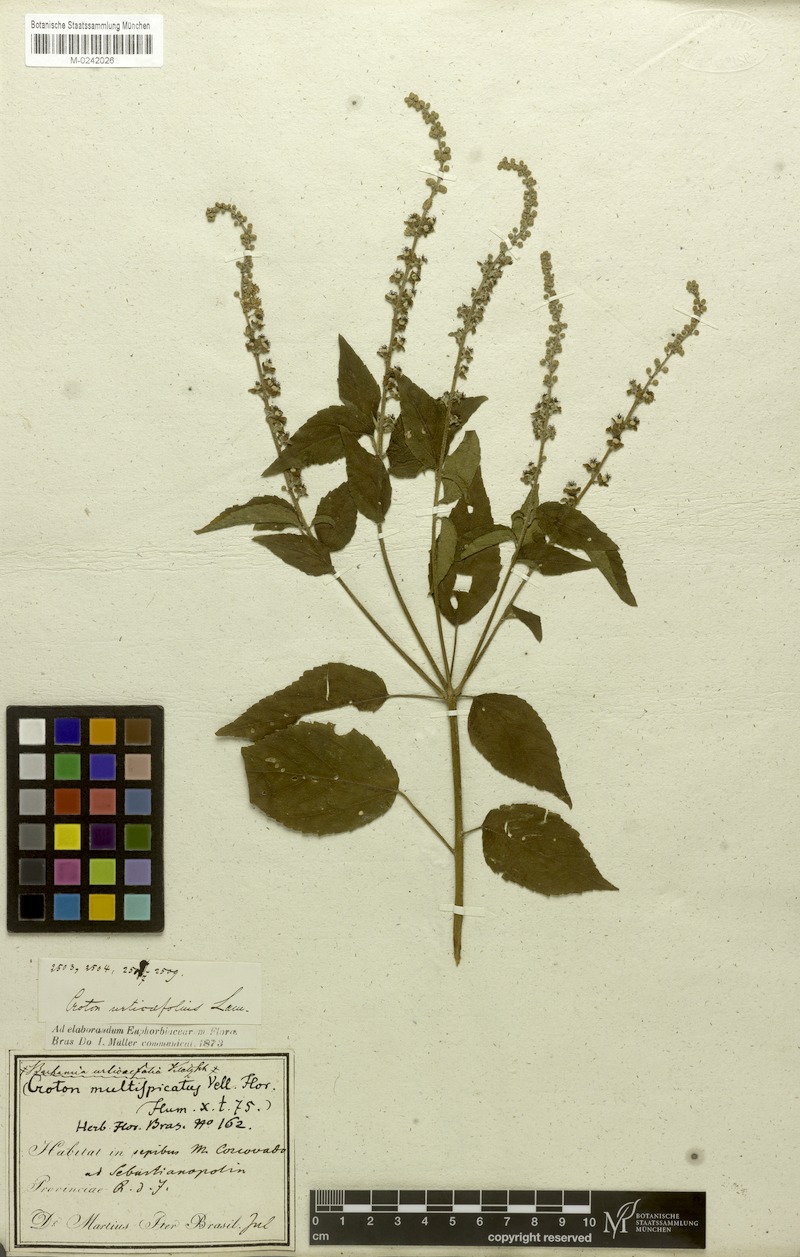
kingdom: Plantae
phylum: Tracheophyta
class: Magnoliopsida
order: Malpighiales
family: Euphorbiaceae
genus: Croton
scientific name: Croton urticifolius
